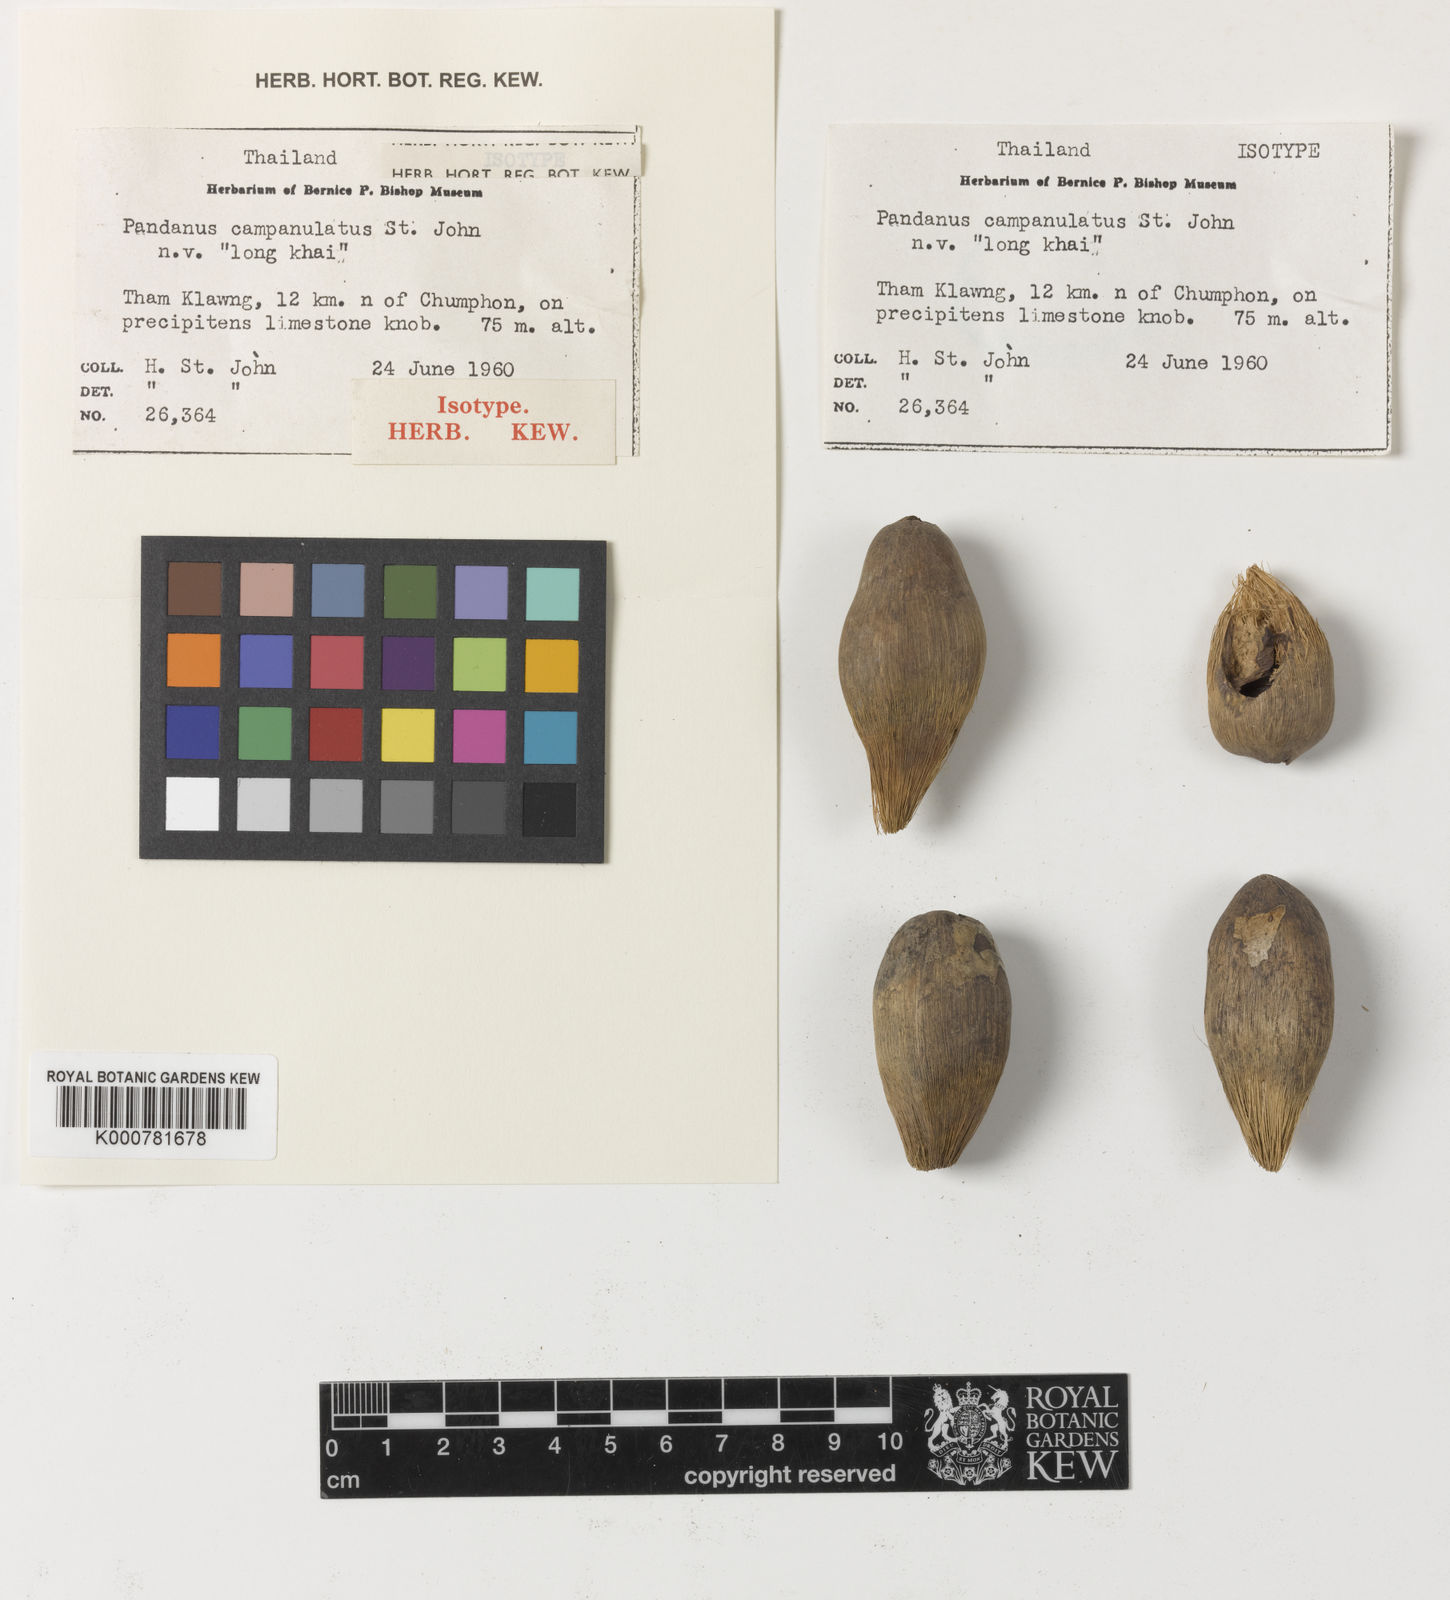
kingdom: Plantae
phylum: Tracheophyta
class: Liliopsida
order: Pandanales
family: Pandanaceae
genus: Pandanus
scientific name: Pandanus
